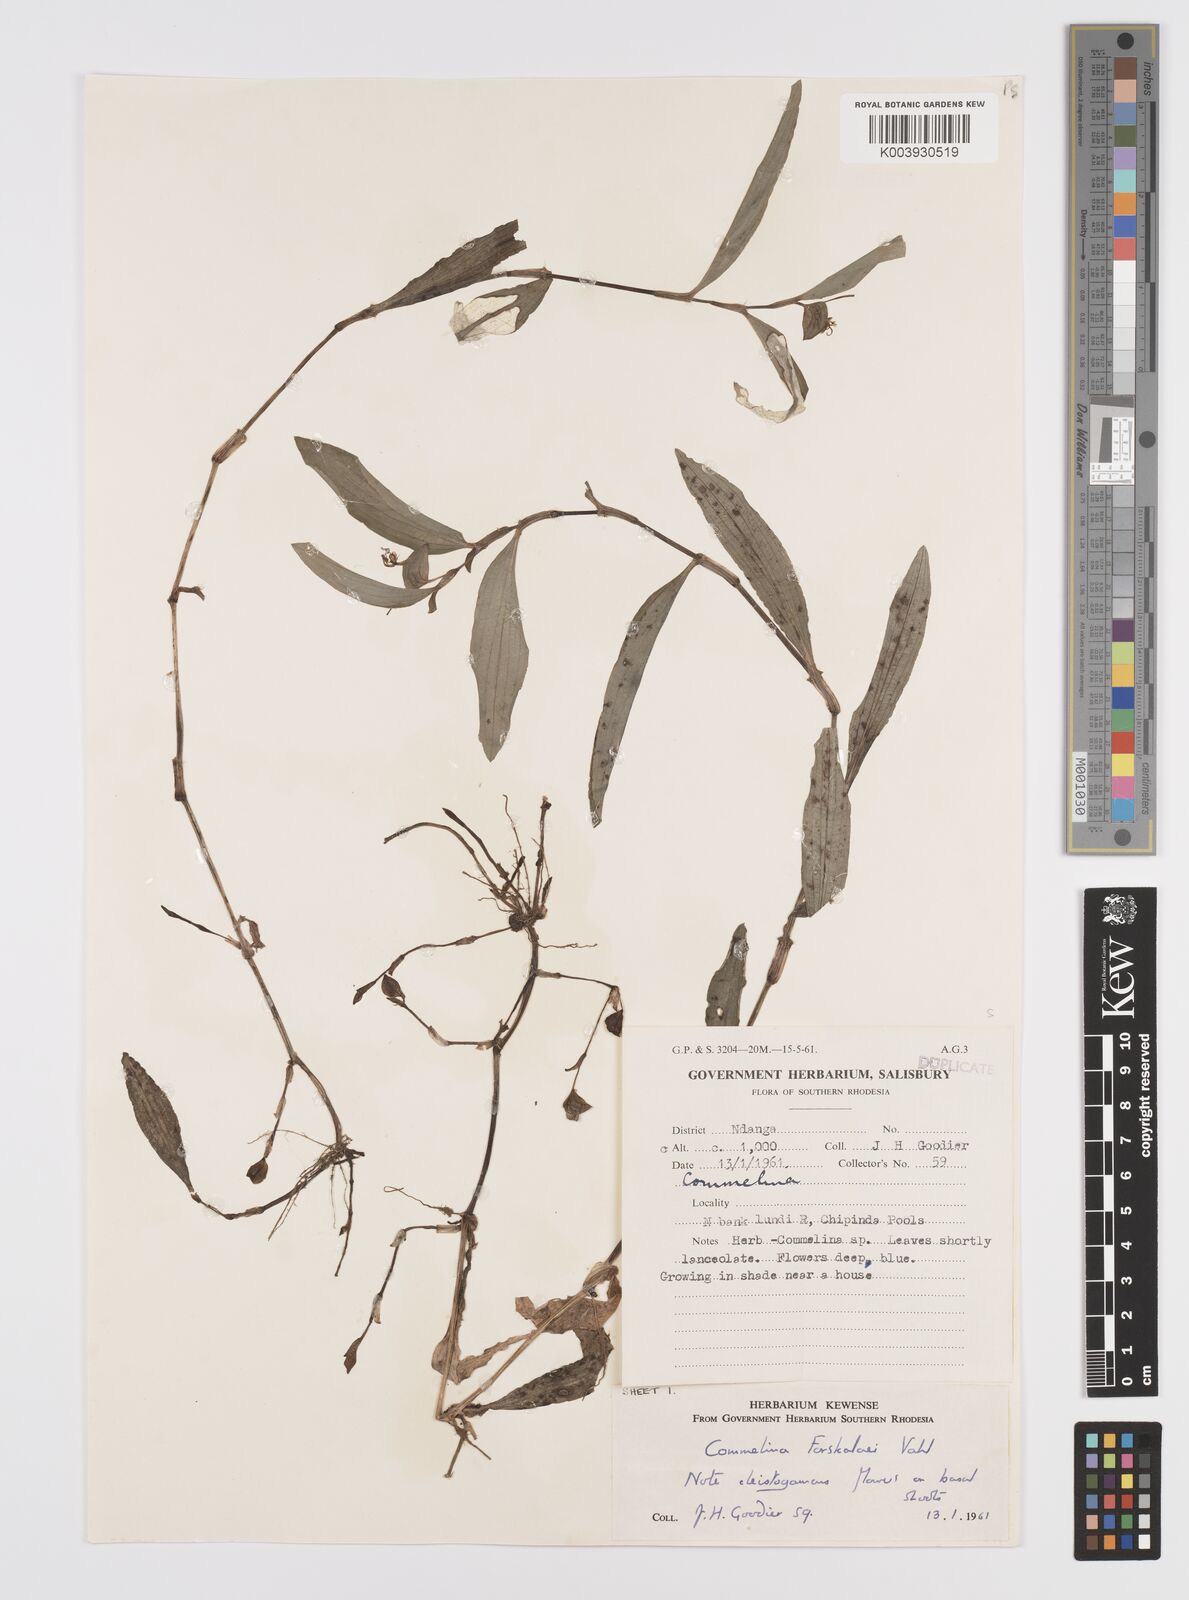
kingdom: Plantae
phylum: Tracheophyta
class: Liliopsida
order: Commelinales
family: Commelinaceae
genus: Commelina
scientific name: Commelina forskaolii
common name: Rat's ear
